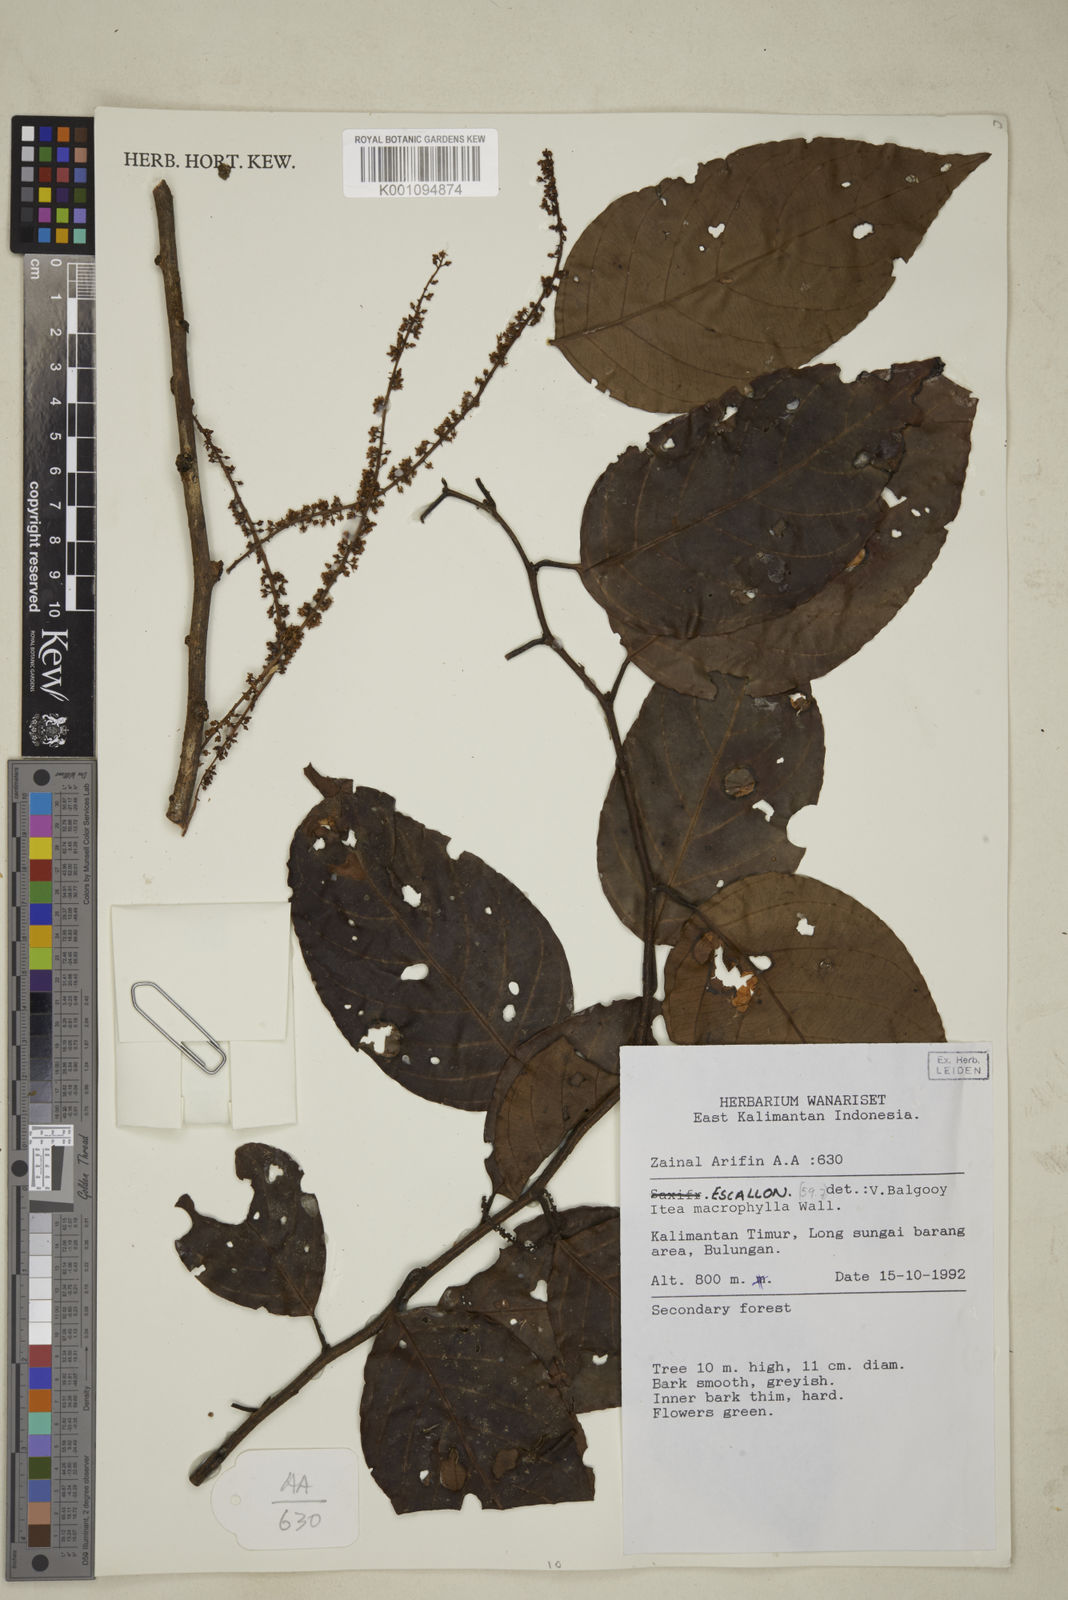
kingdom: Plantae
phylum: Tracheophyta
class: Magnoliopsida
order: Saxifragales
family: Iteaceae
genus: Itea
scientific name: Itea macrophylla
